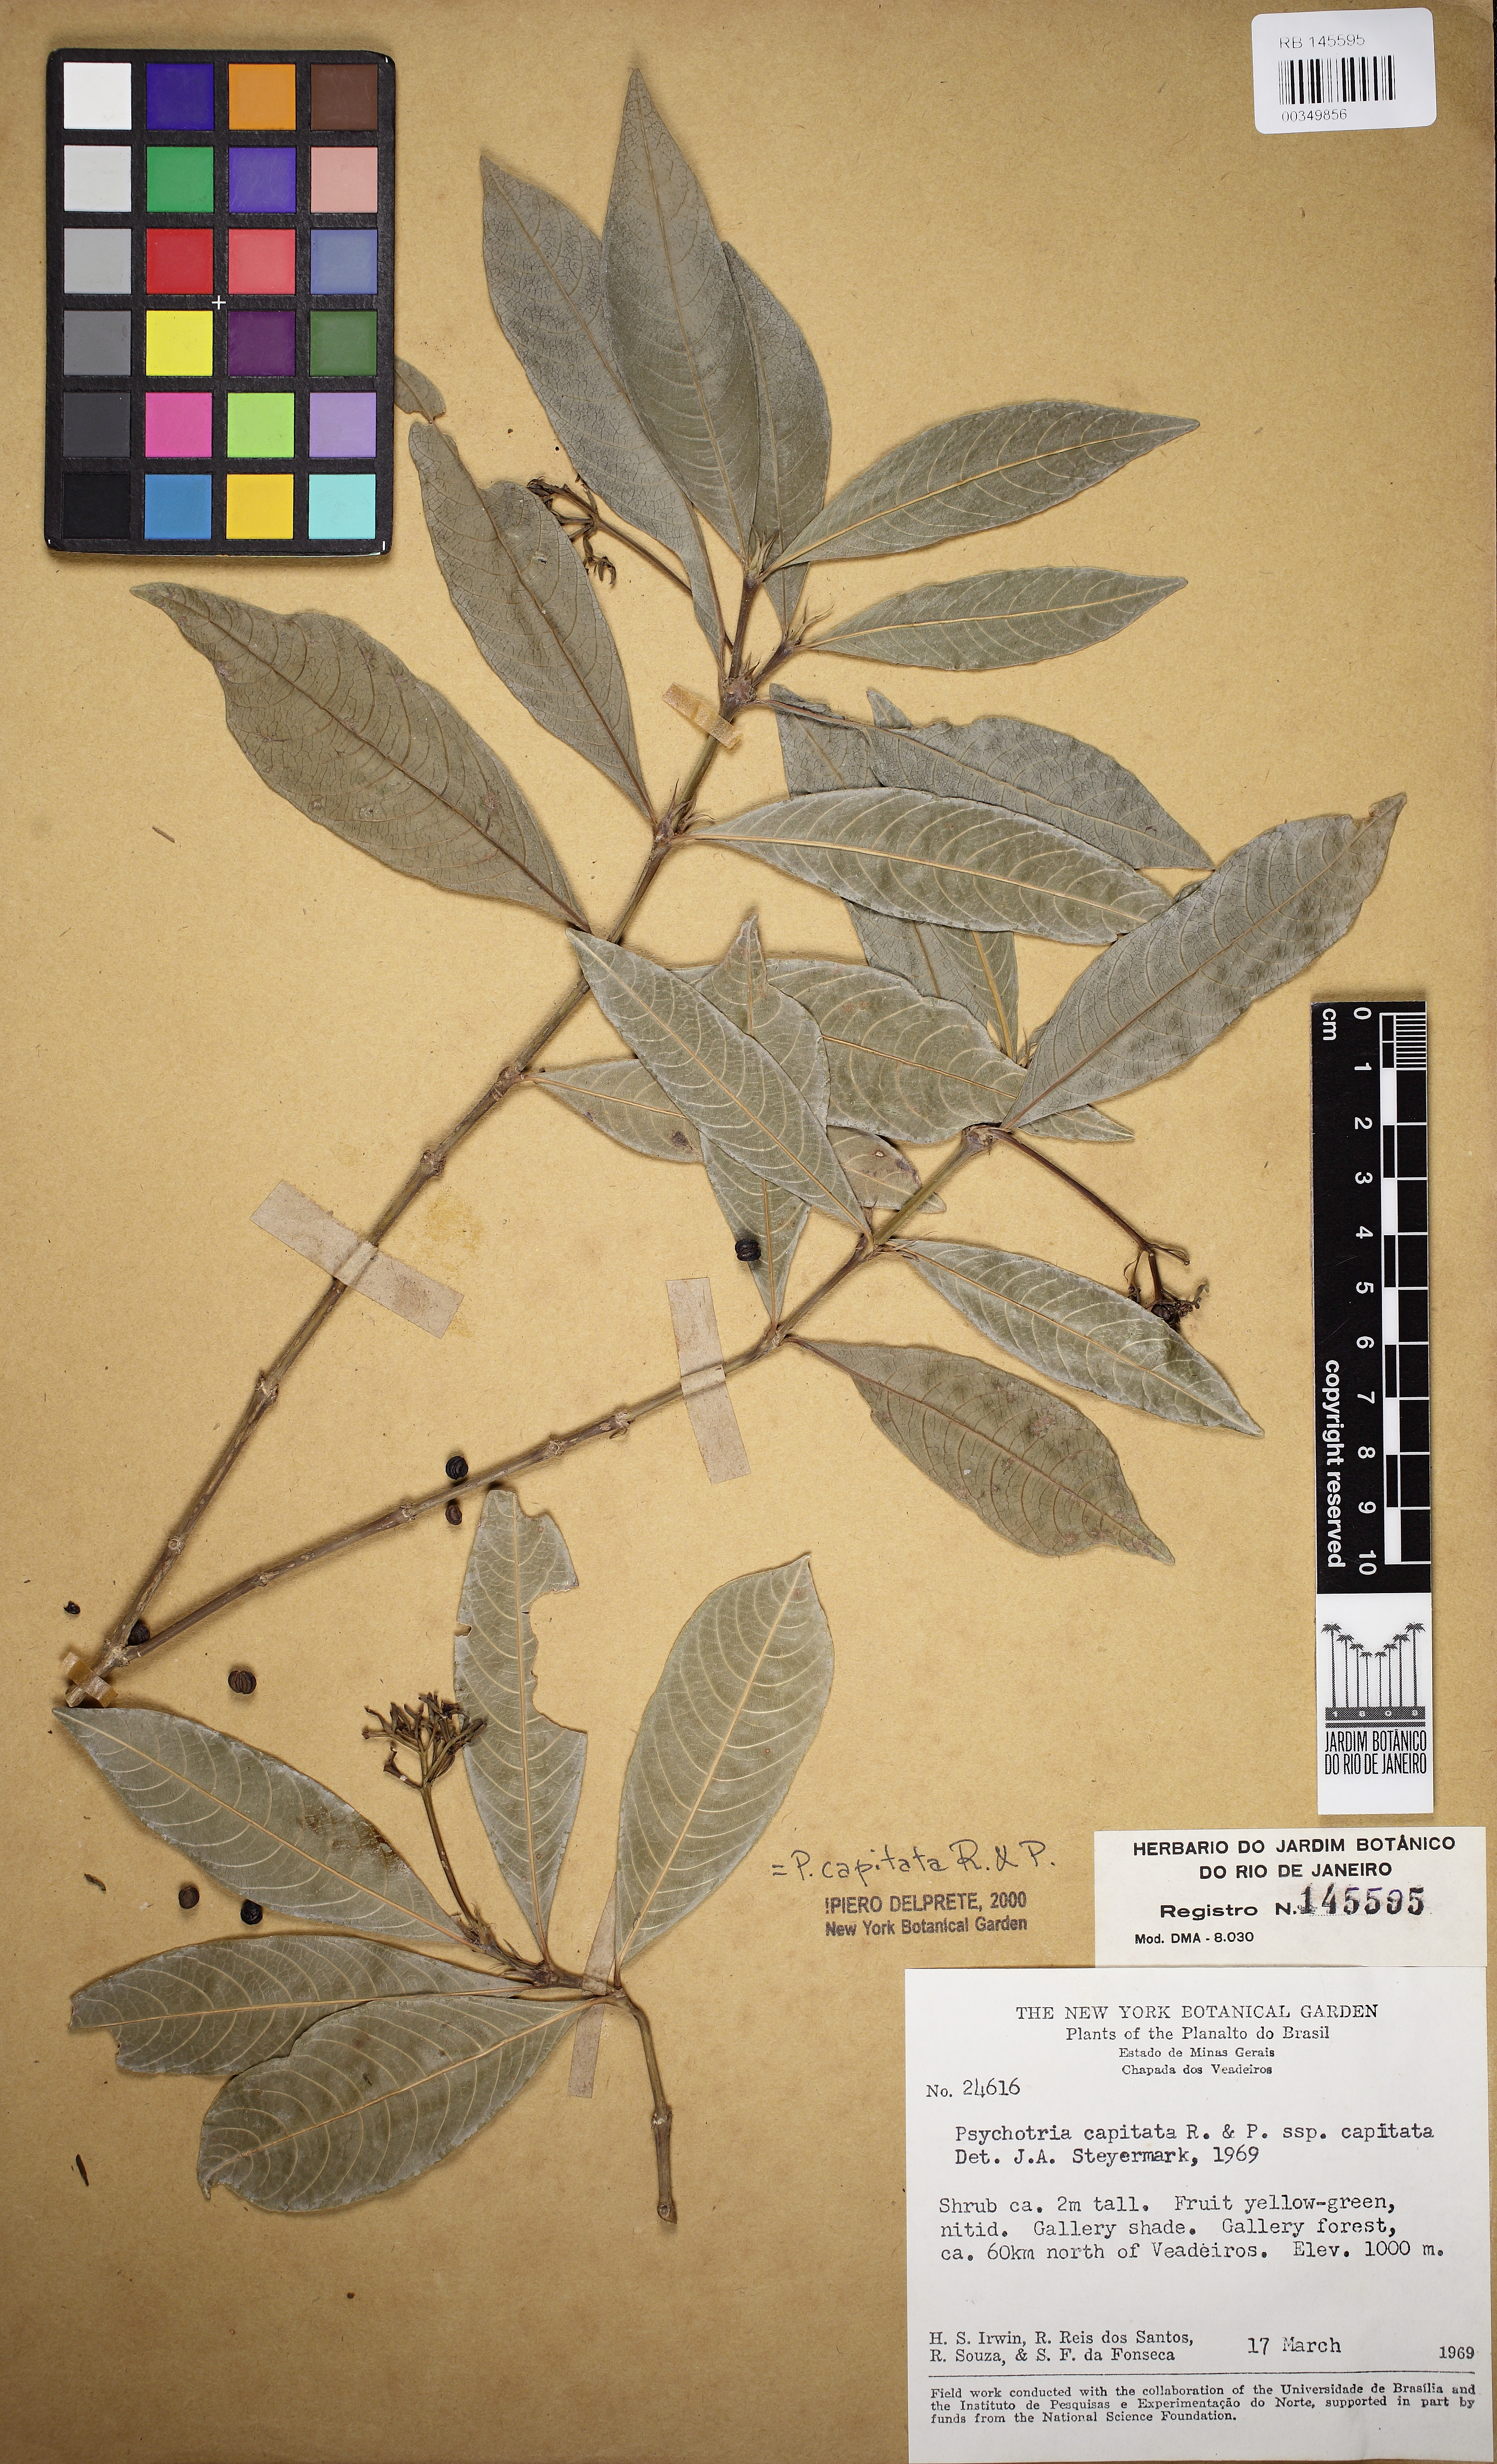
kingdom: Plantae
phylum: Tracheophyta
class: Magnoliopsida
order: Gentianales
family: Rubiaceae
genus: Palicourea
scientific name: Palicourea violacea
